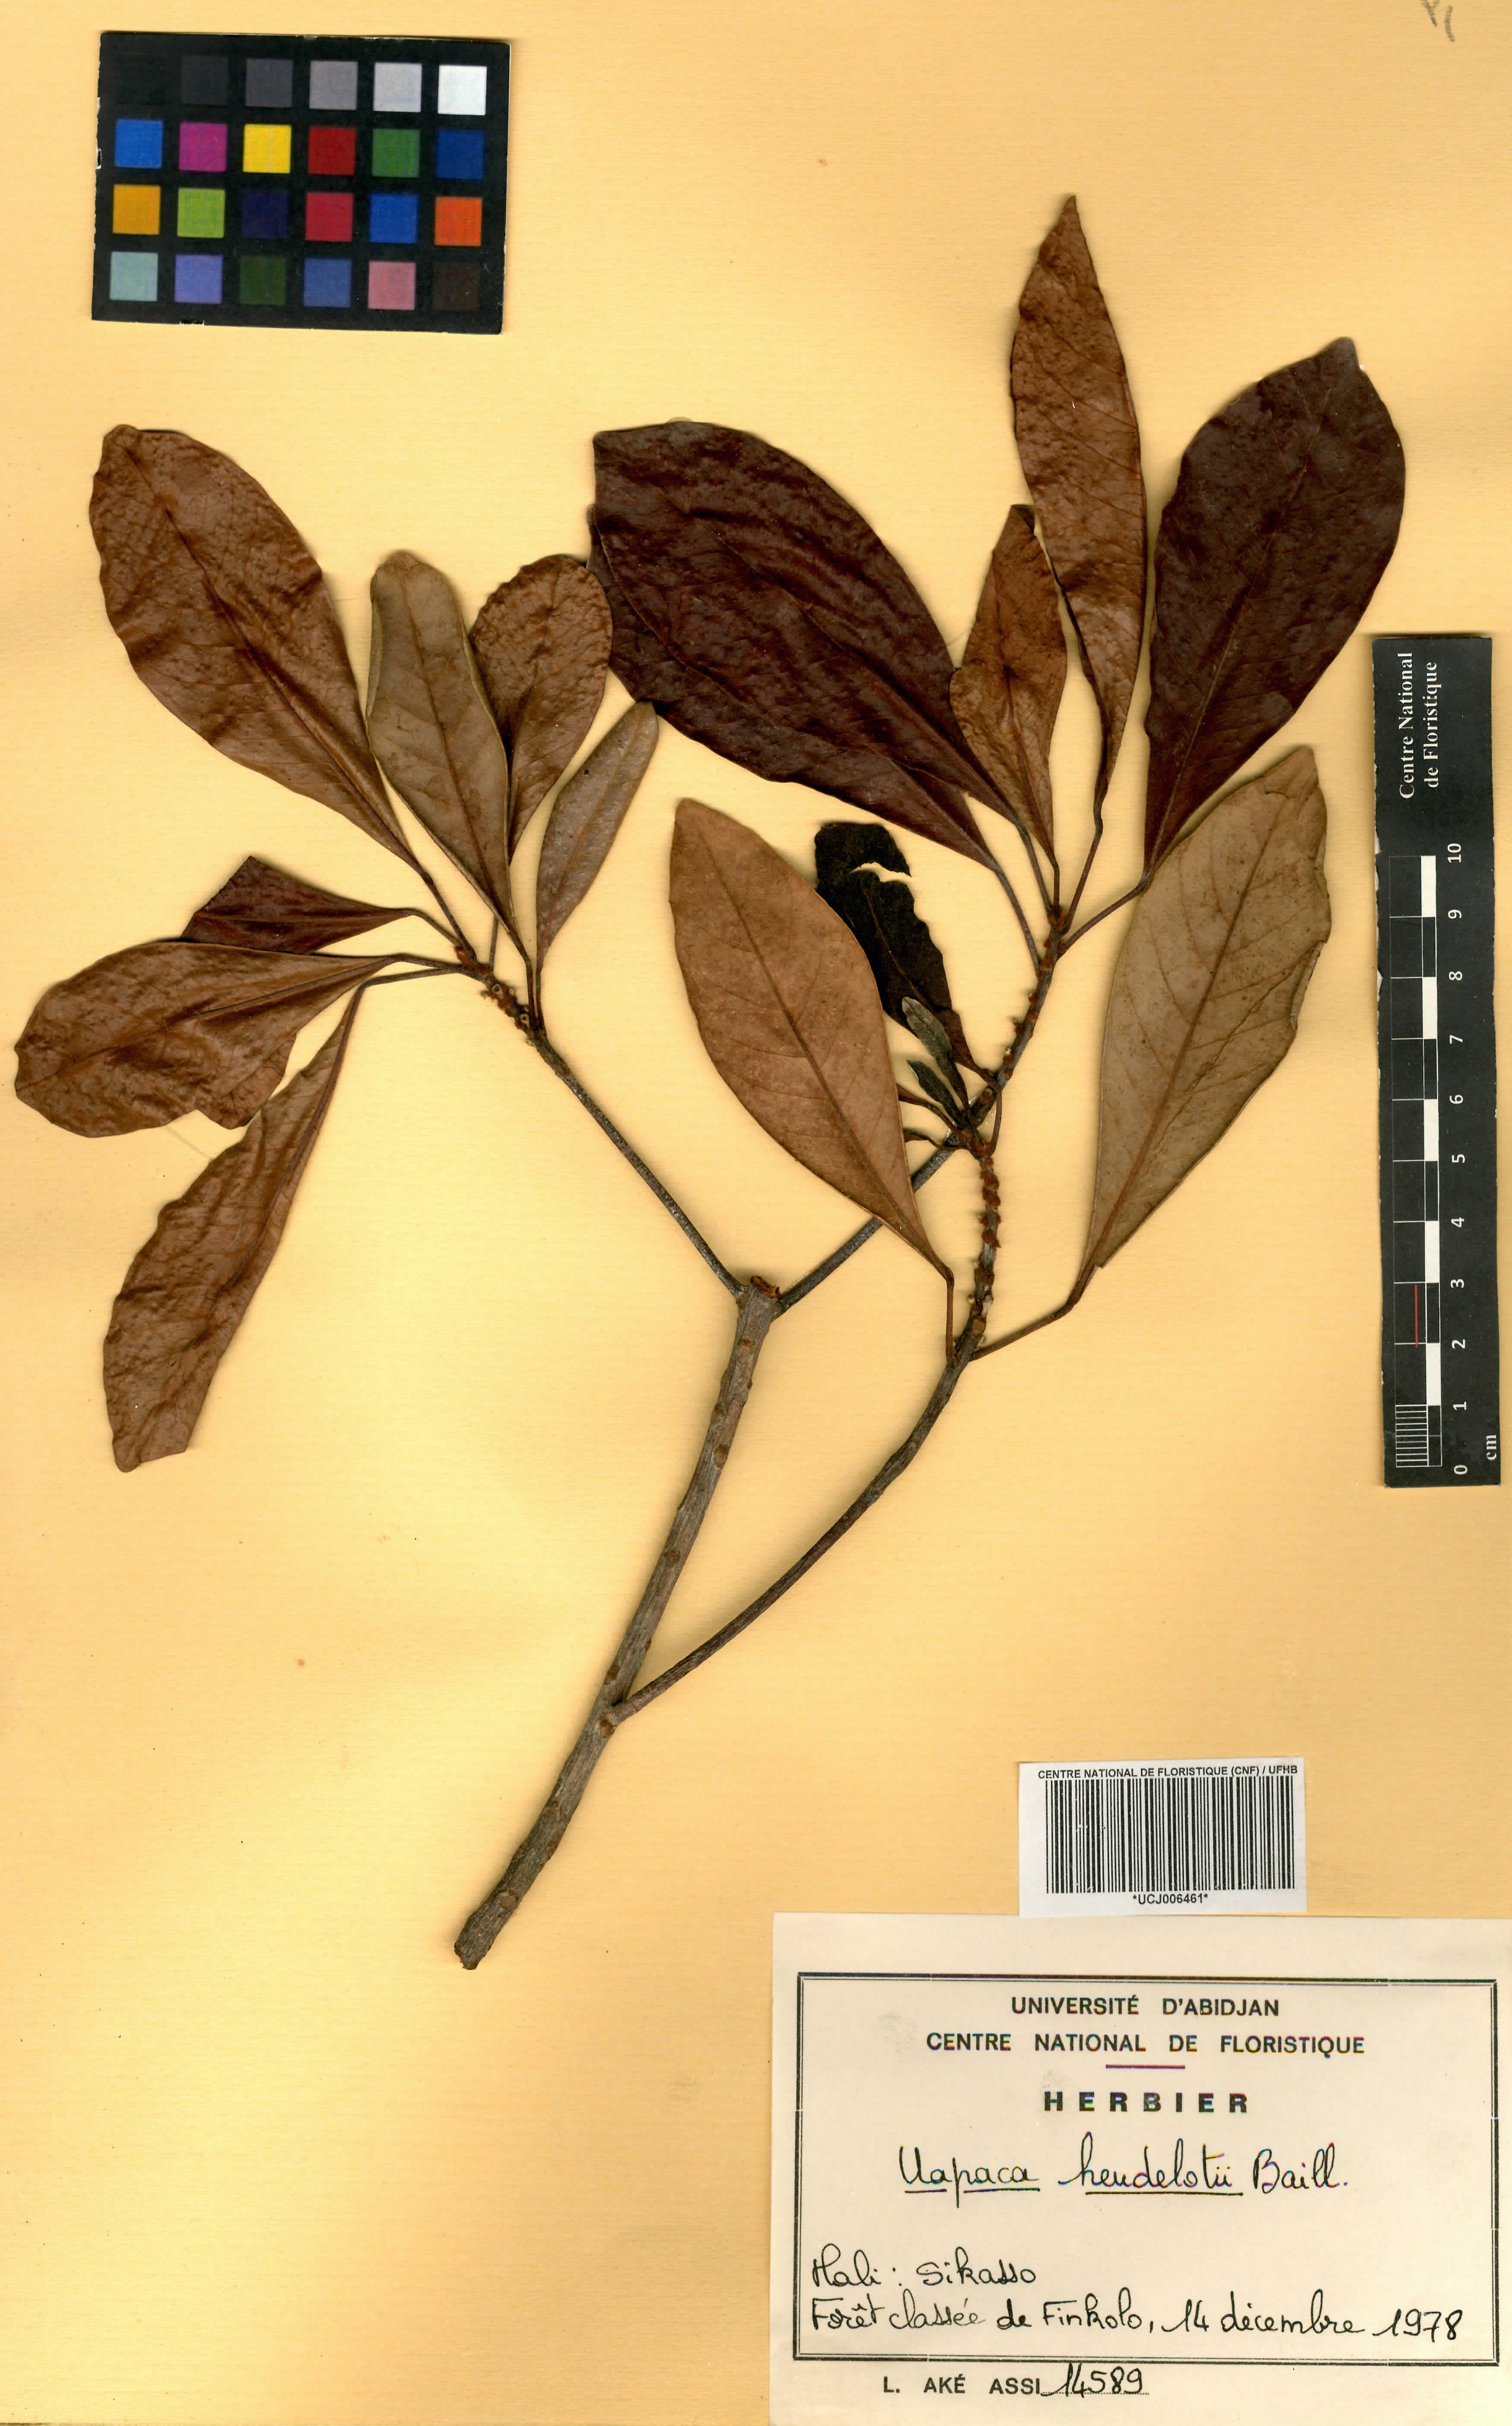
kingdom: Plantae
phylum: Tracheophyta
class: Magnoliopsida
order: Malpighiales
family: Phyllanthaceae
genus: Uapaca
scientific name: Uapaca heudelotii
